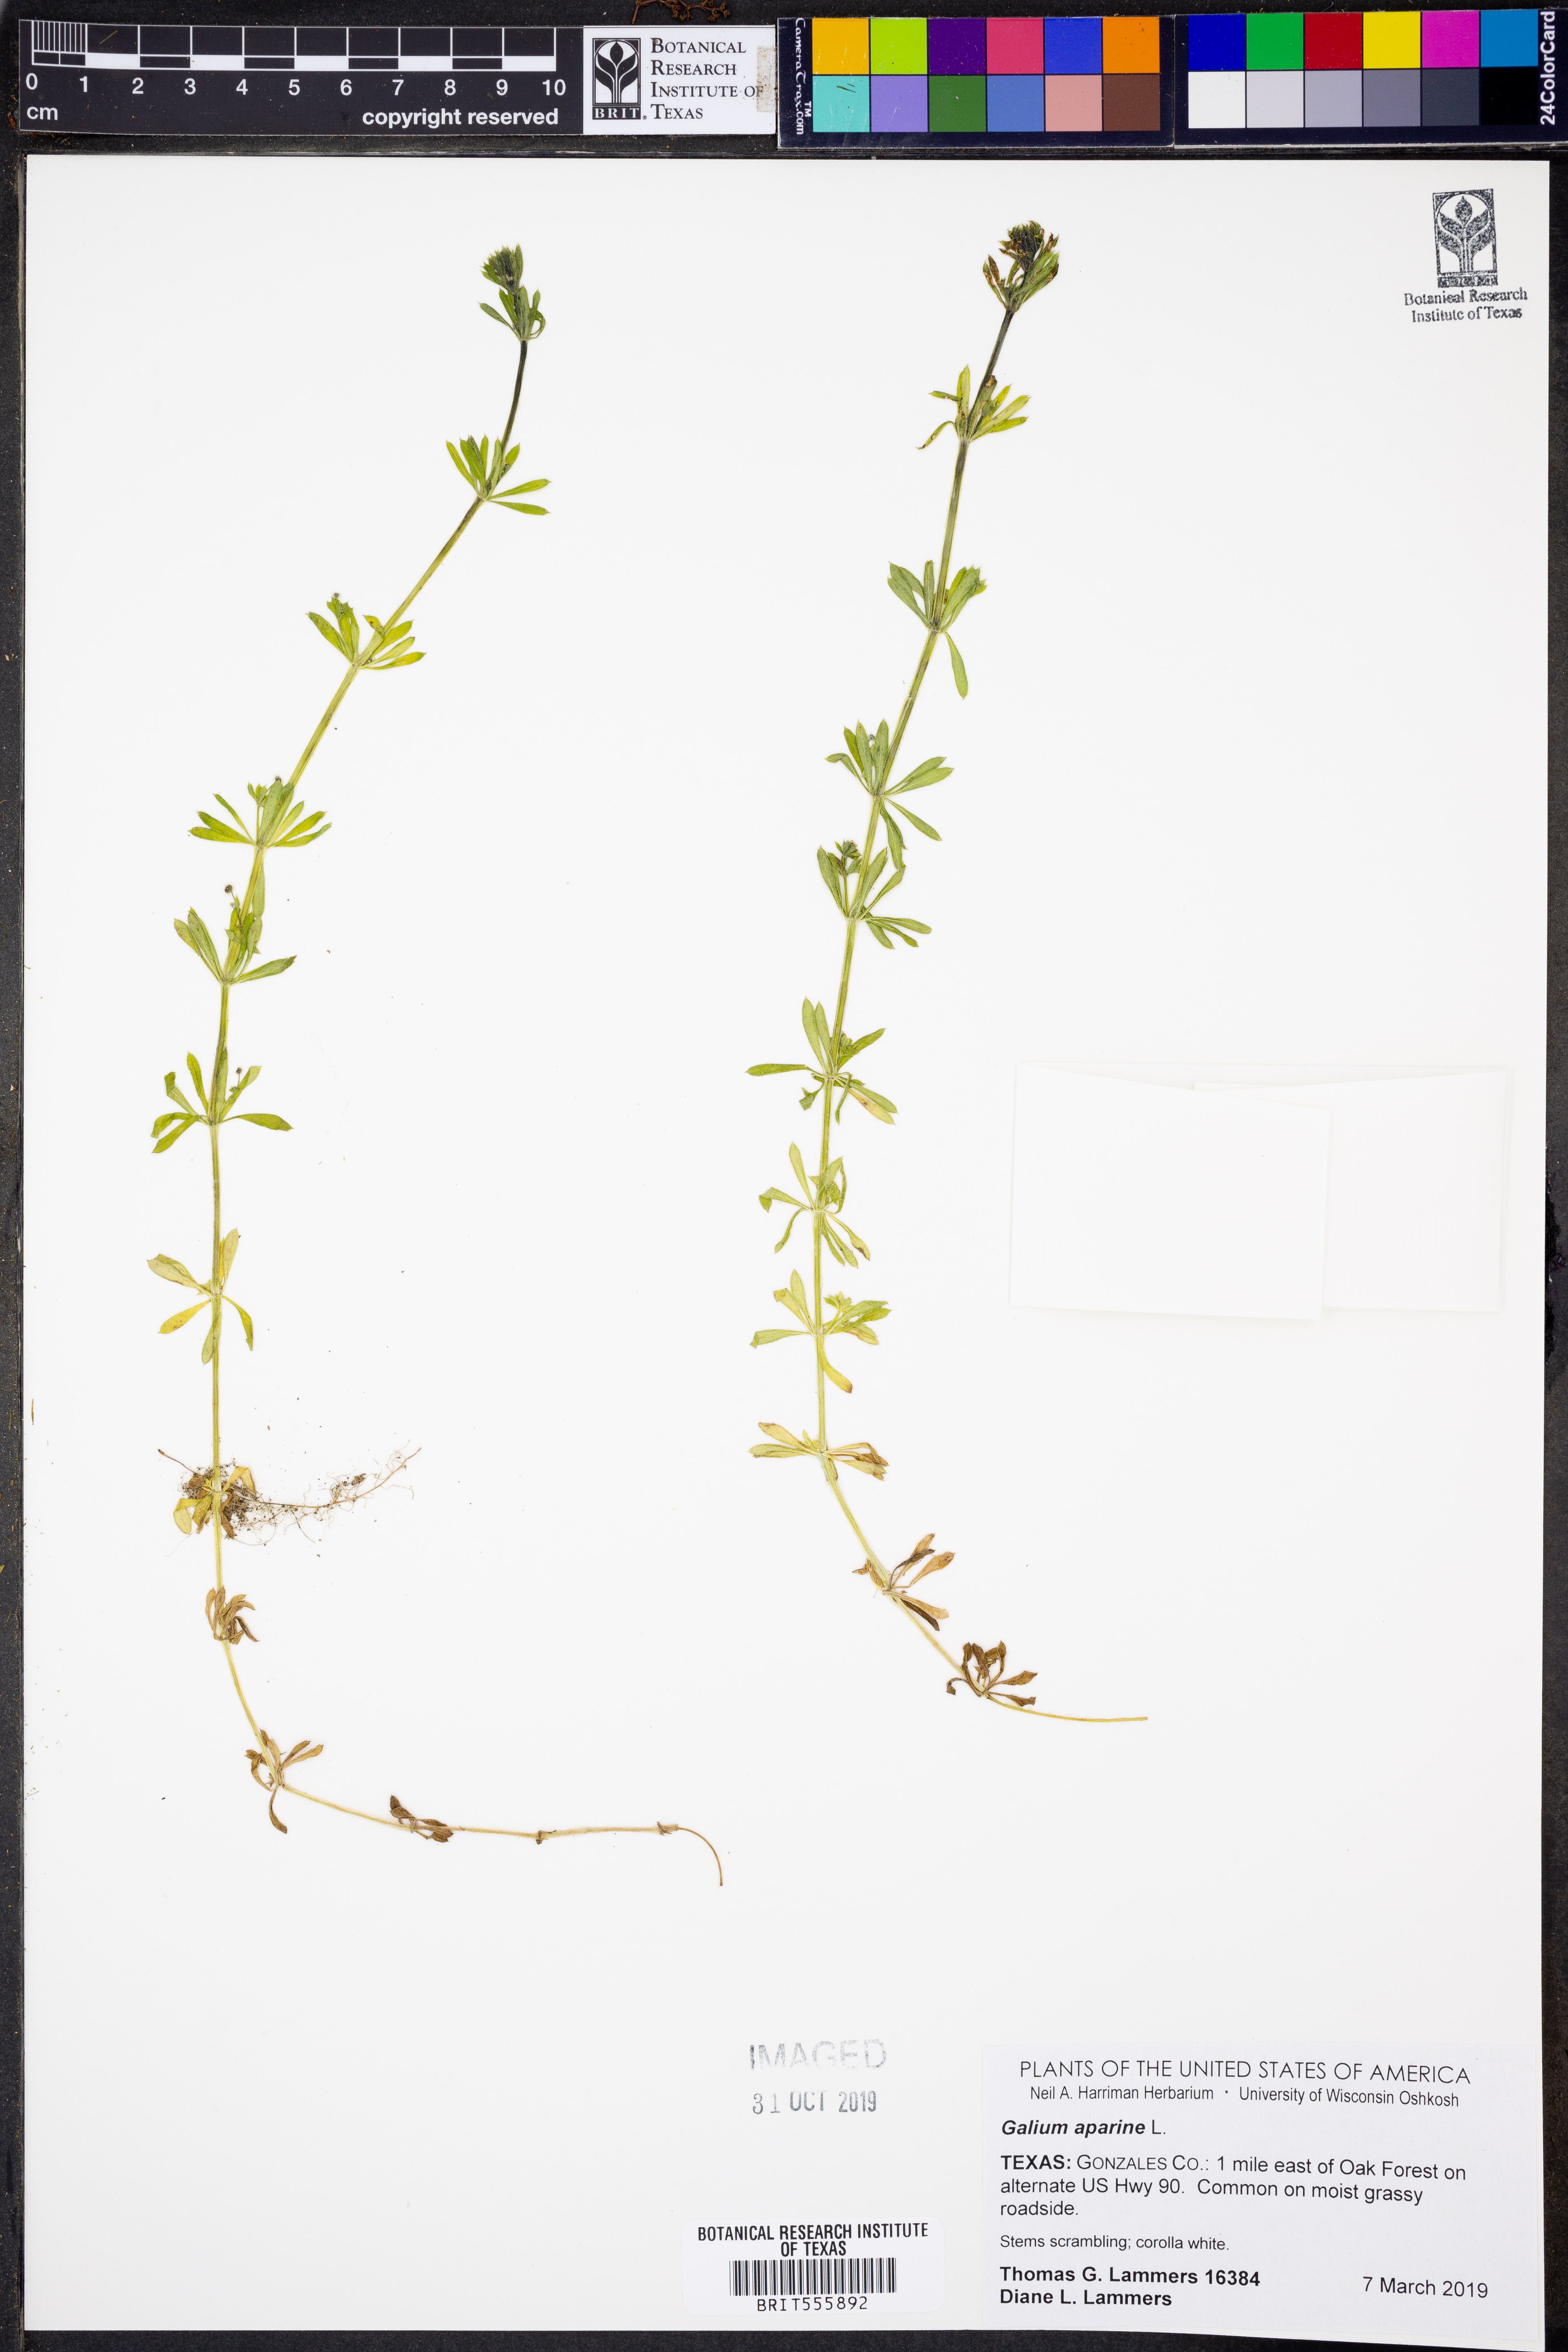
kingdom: Plantae
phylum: Tracheophyta
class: Magnoliopsida
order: Gentianales
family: Rubiaceae
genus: Galium
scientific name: Galium aparine
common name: Cleavers
